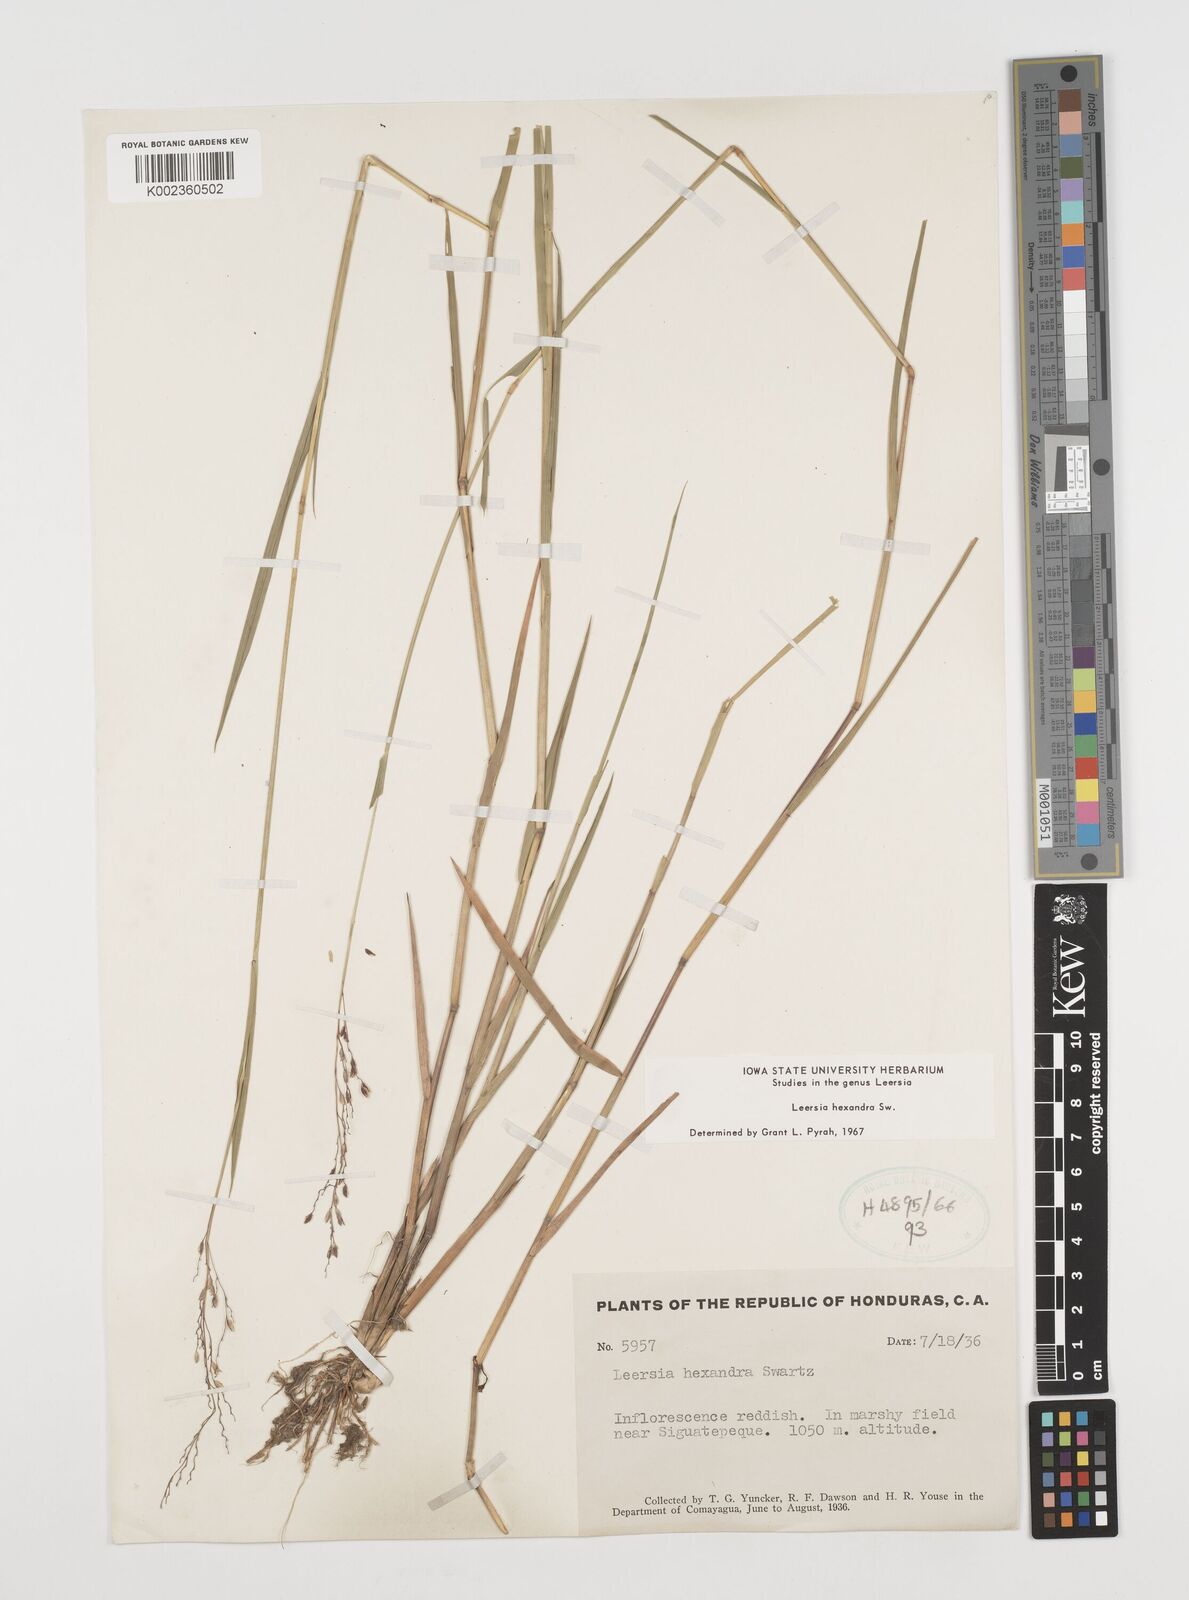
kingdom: Plantae
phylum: Tracheophyta
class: Liliopsida
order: Poales
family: Poaceae
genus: Leersia
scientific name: Leersia hexandra
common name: Southern cut grass
